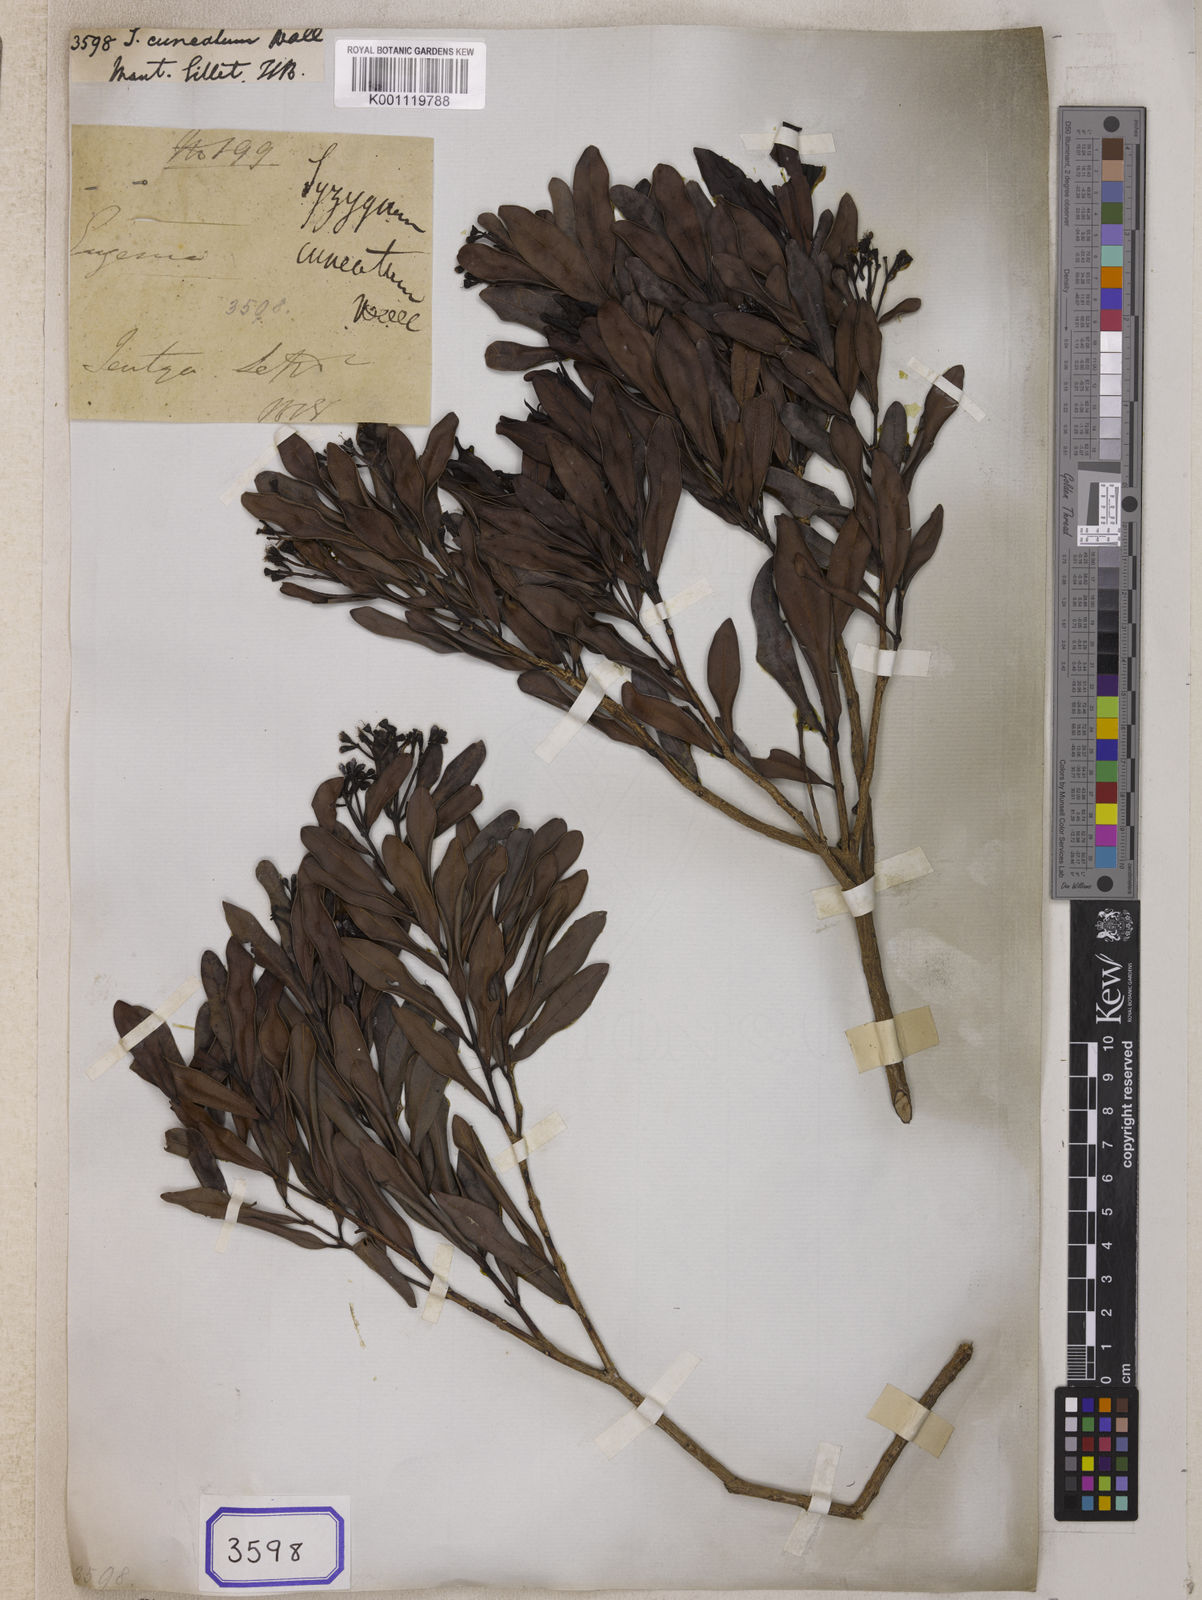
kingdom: Plantae
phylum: Tracheophyta
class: Magnoliopsida
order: Myrtales
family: Myrtaceae
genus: Syzygium
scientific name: Syzygium
